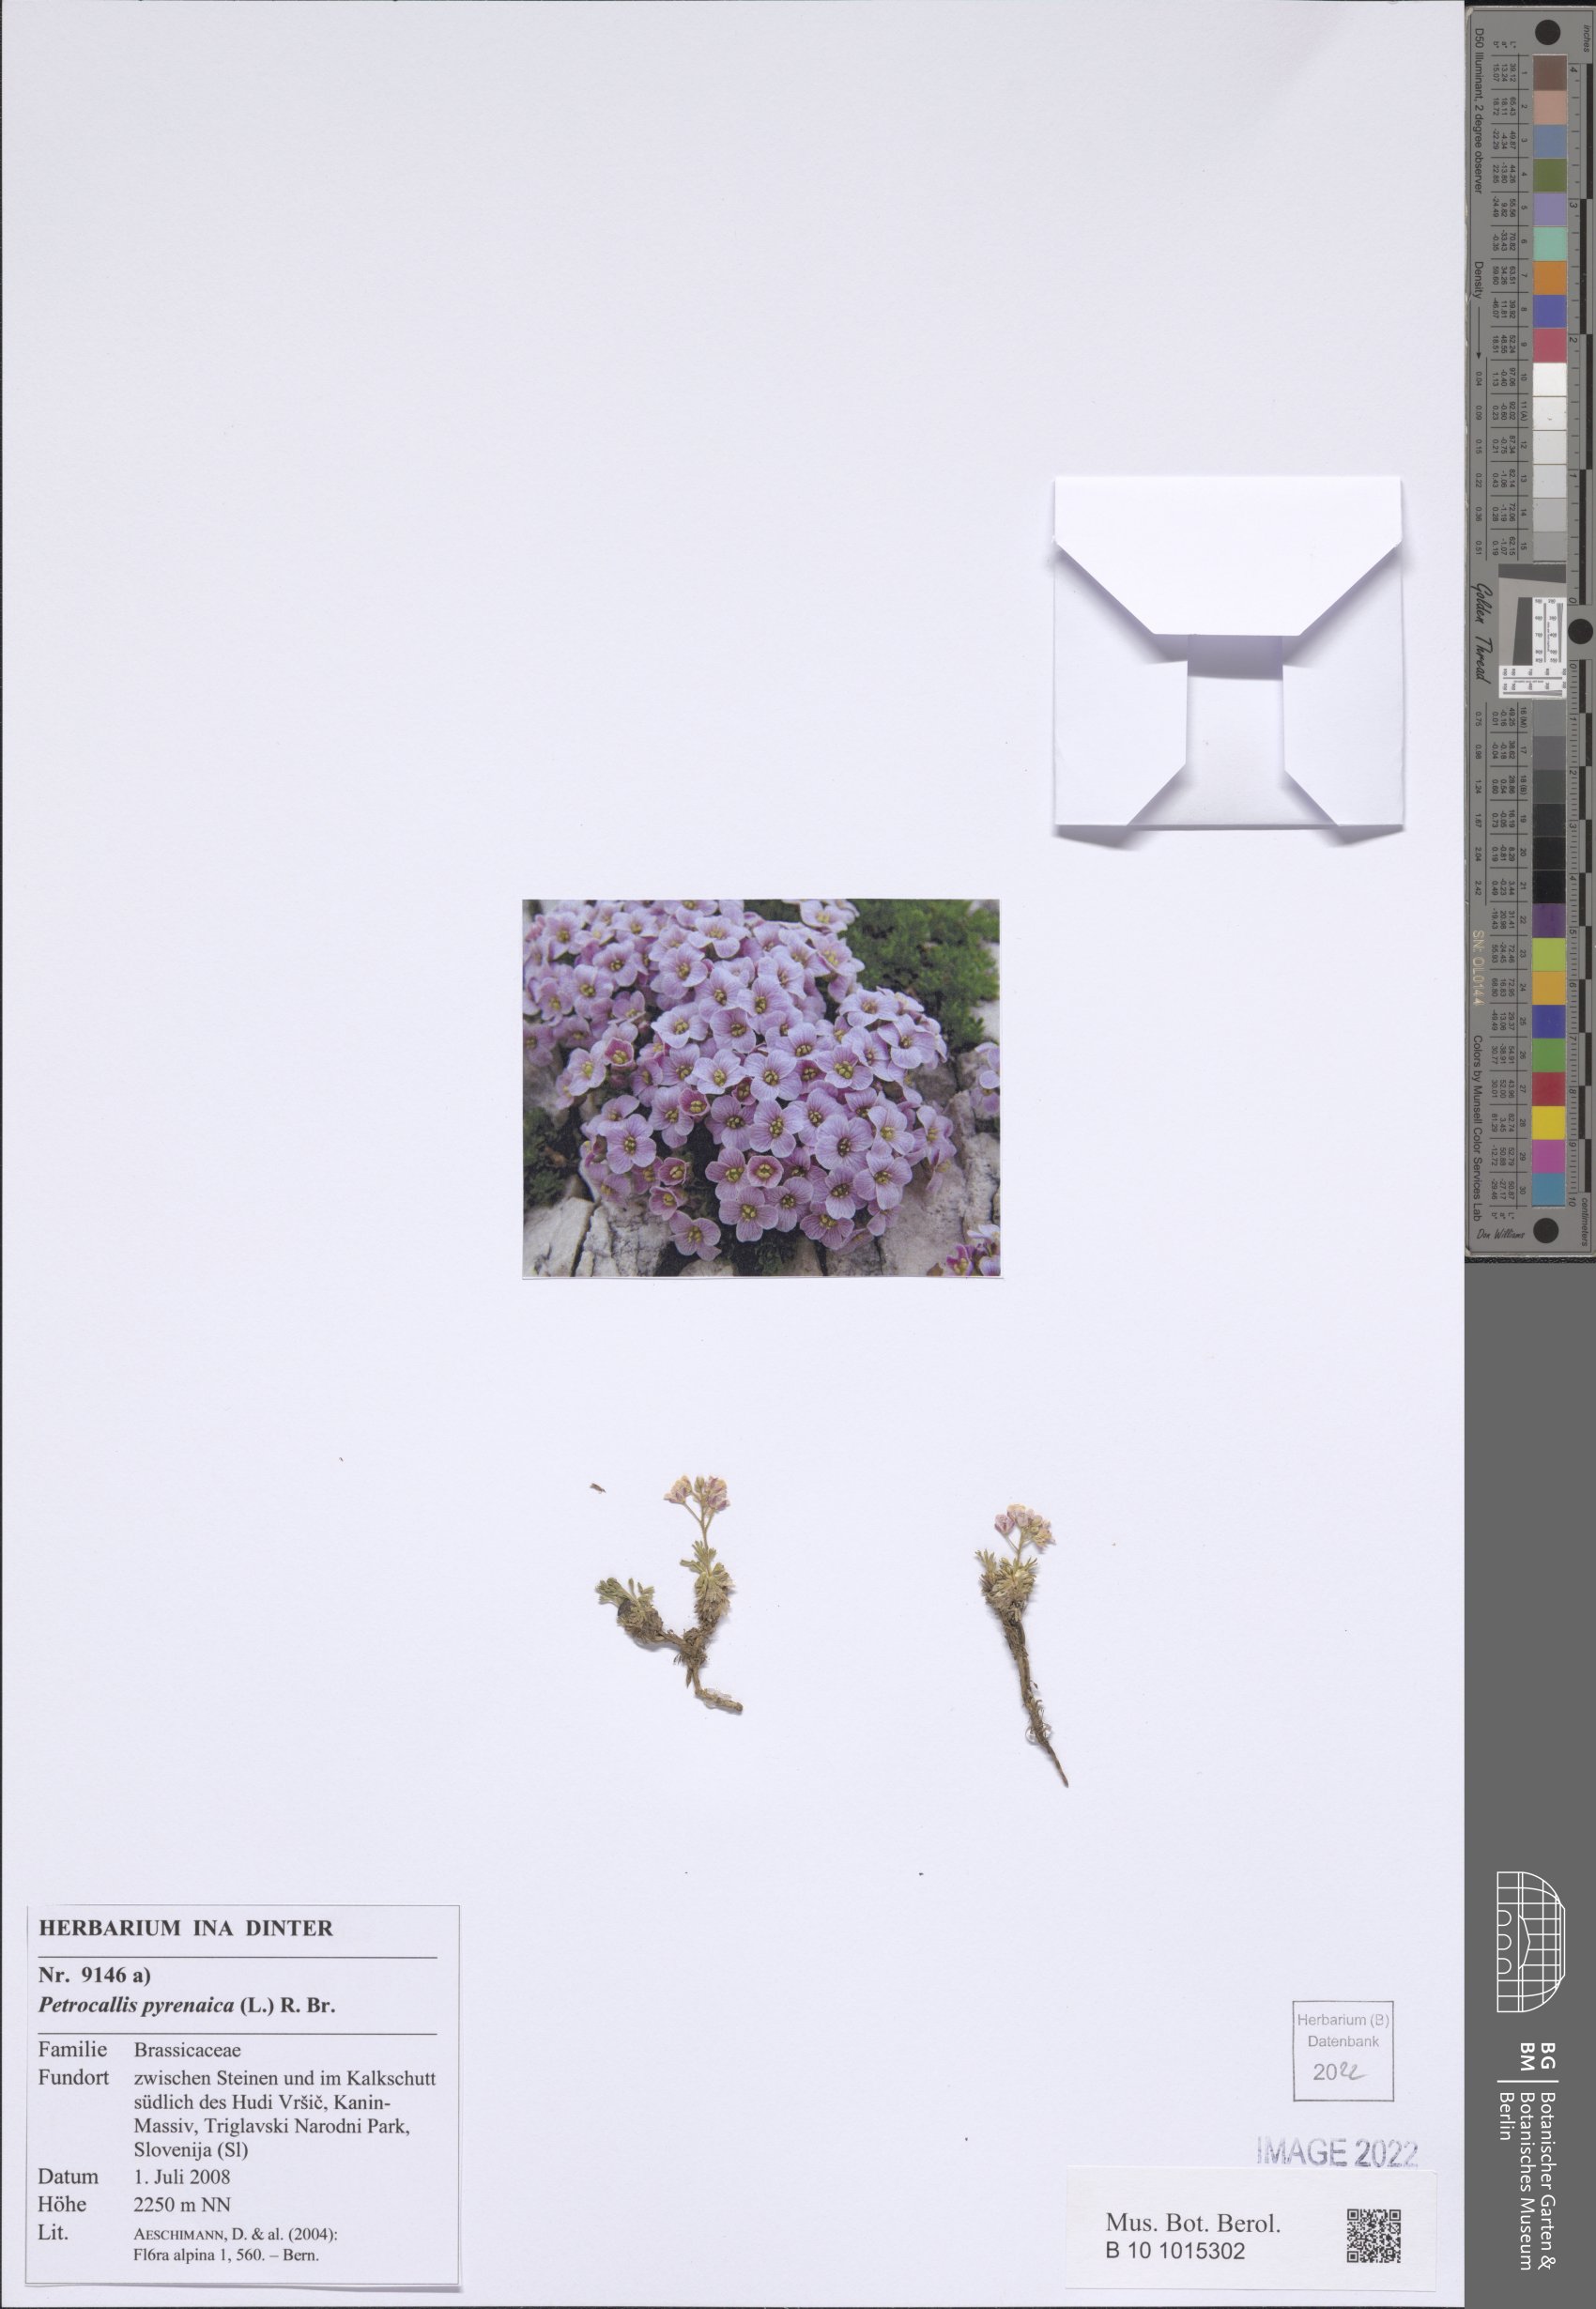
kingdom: Plantae
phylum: Tracheophyta
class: Magnoliopsida
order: Brassicales
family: Brassicaceae
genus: Petrocallis
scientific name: Petrocallis pyrenaica
